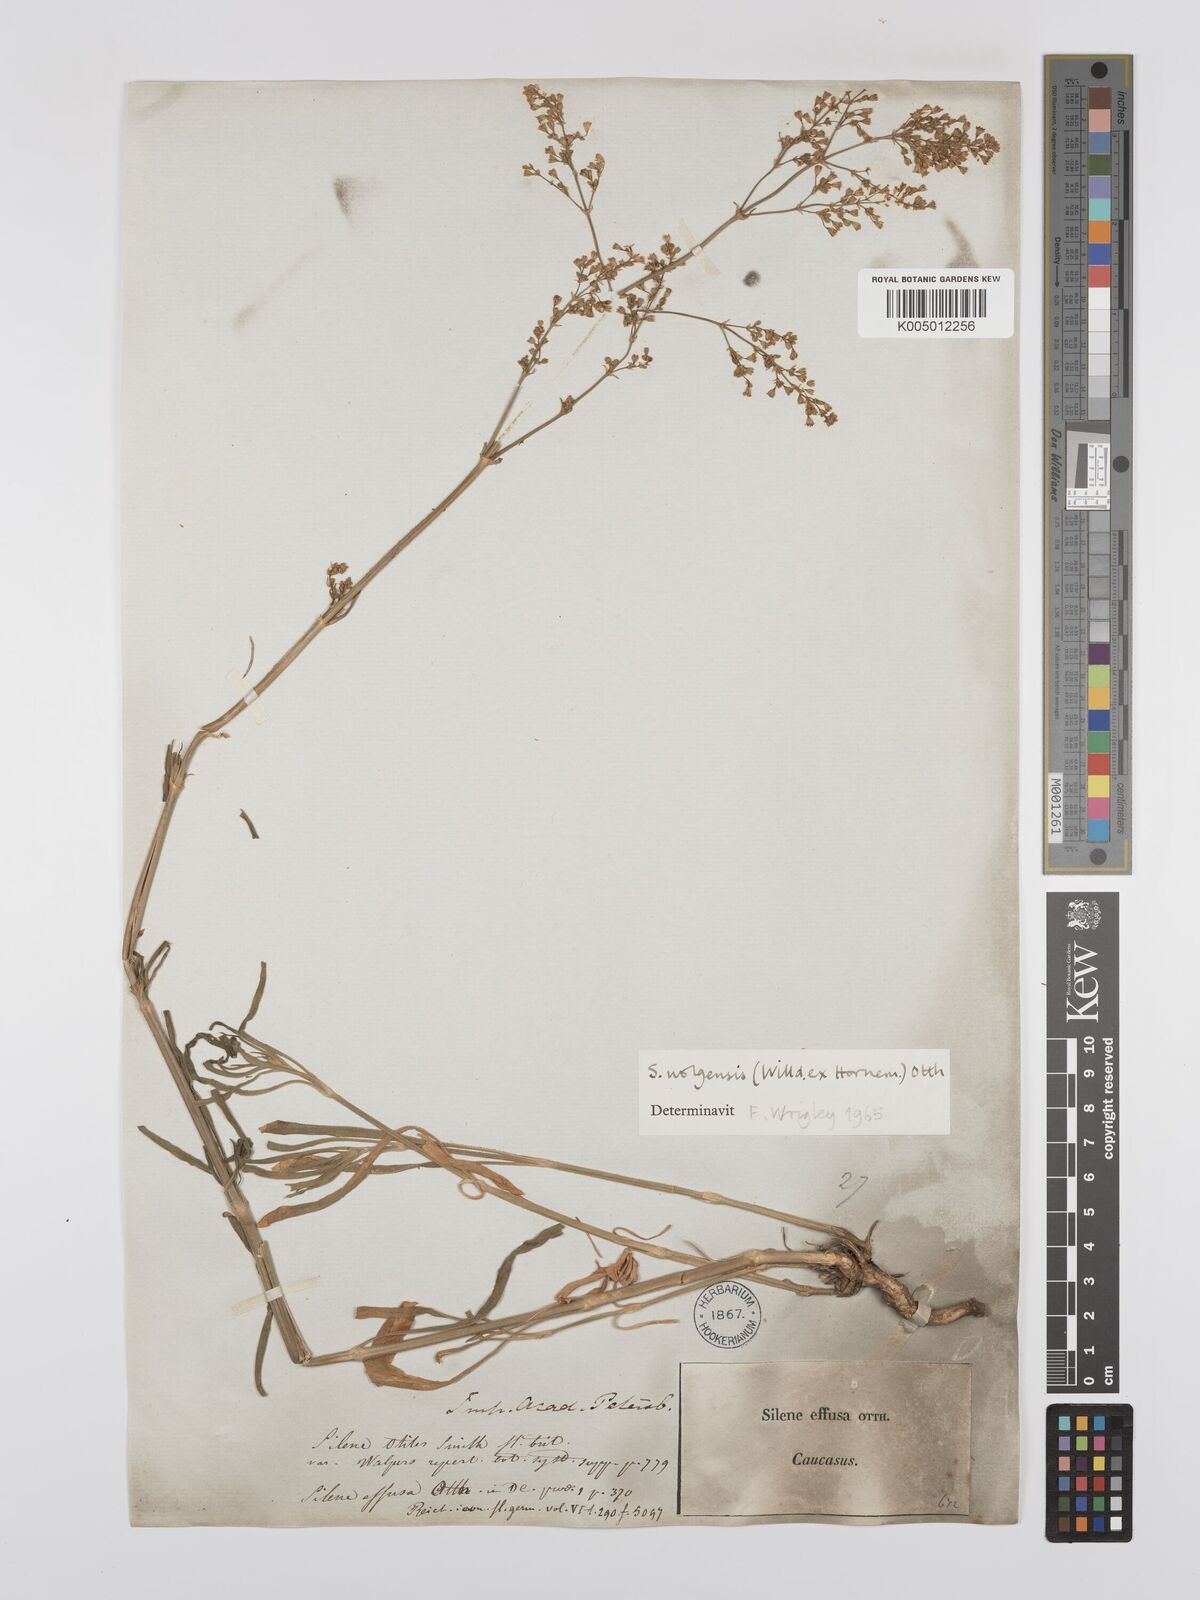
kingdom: Plantae
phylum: Tracheophyta
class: Magnoliopsida
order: Caryophyllales
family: Caryophyllaceae
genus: Silene
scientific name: Silene wolgensis
